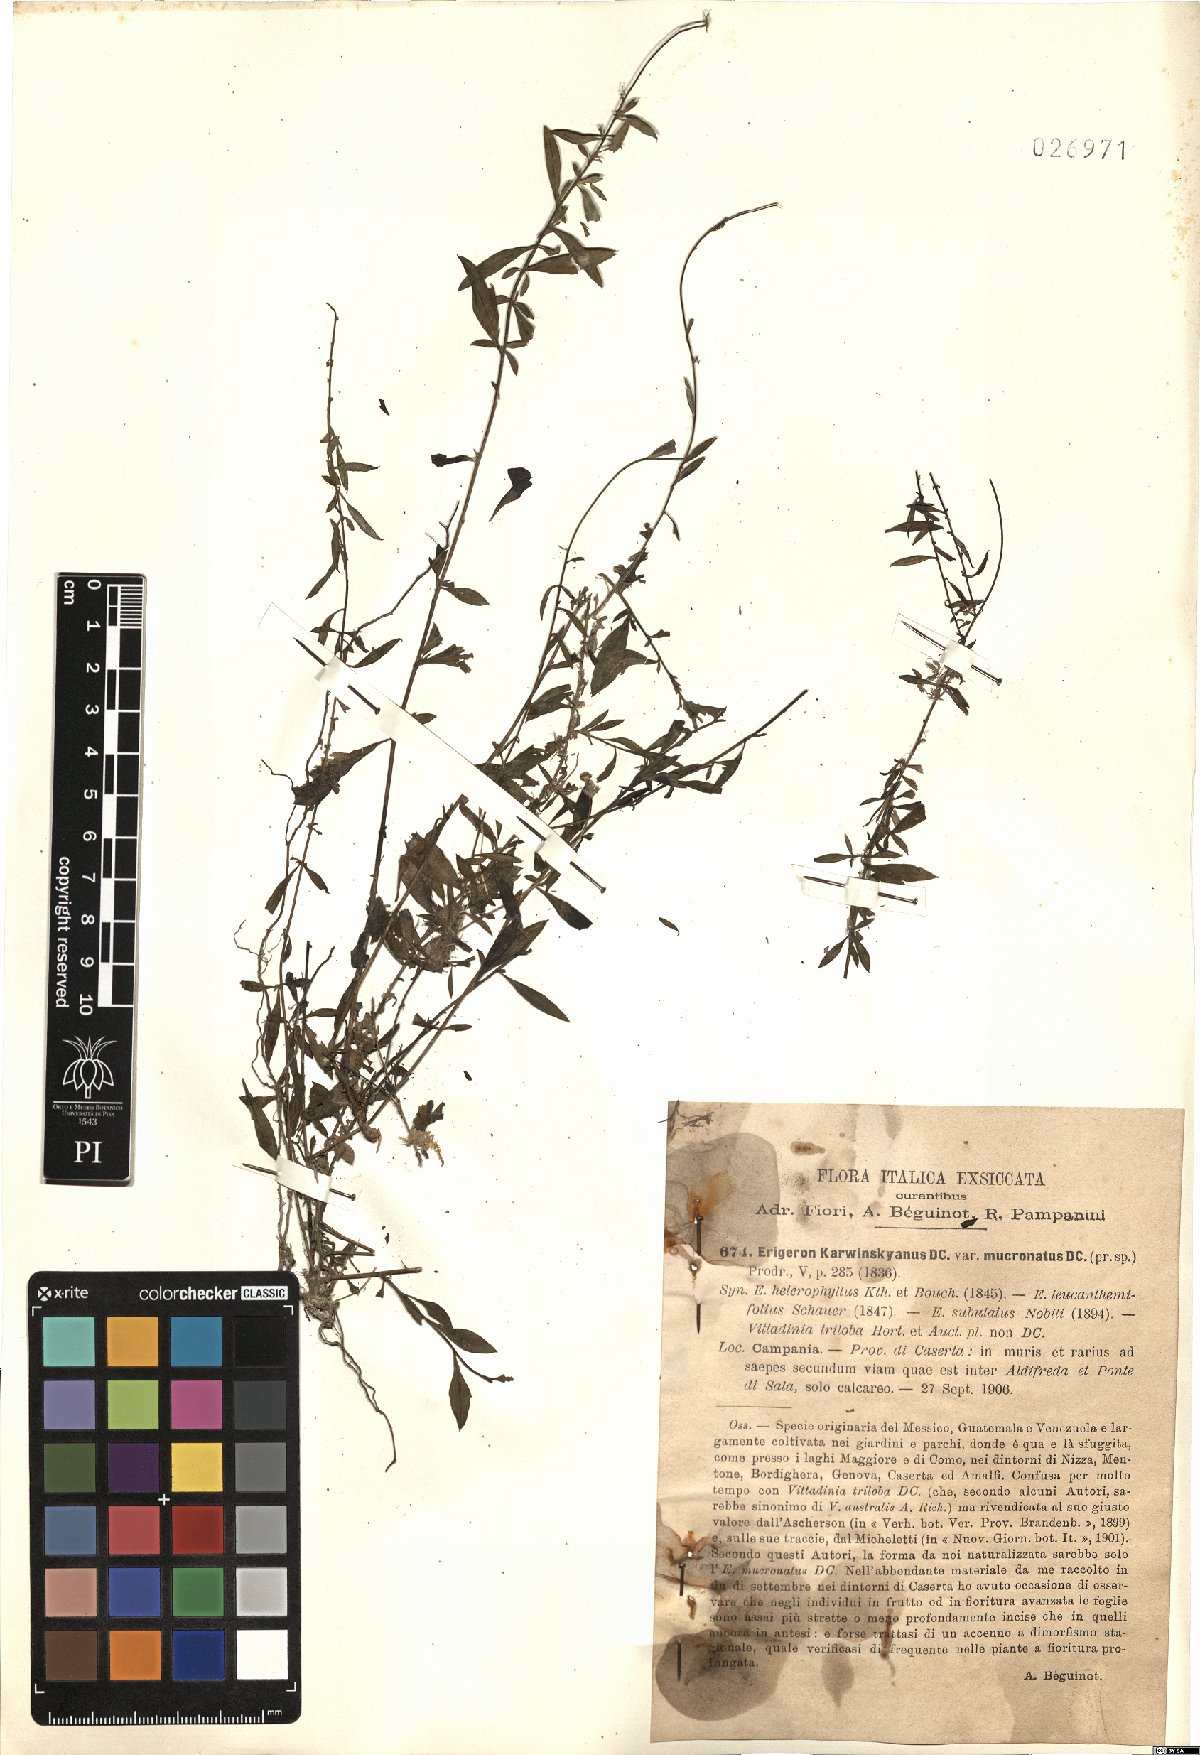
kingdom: Plantae
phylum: Tracheophyta
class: Magnoliopsida
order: Asterales
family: Asteraceae
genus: Erigeron
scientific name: Erigeron karvinskianus
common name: Mexican fleabane
